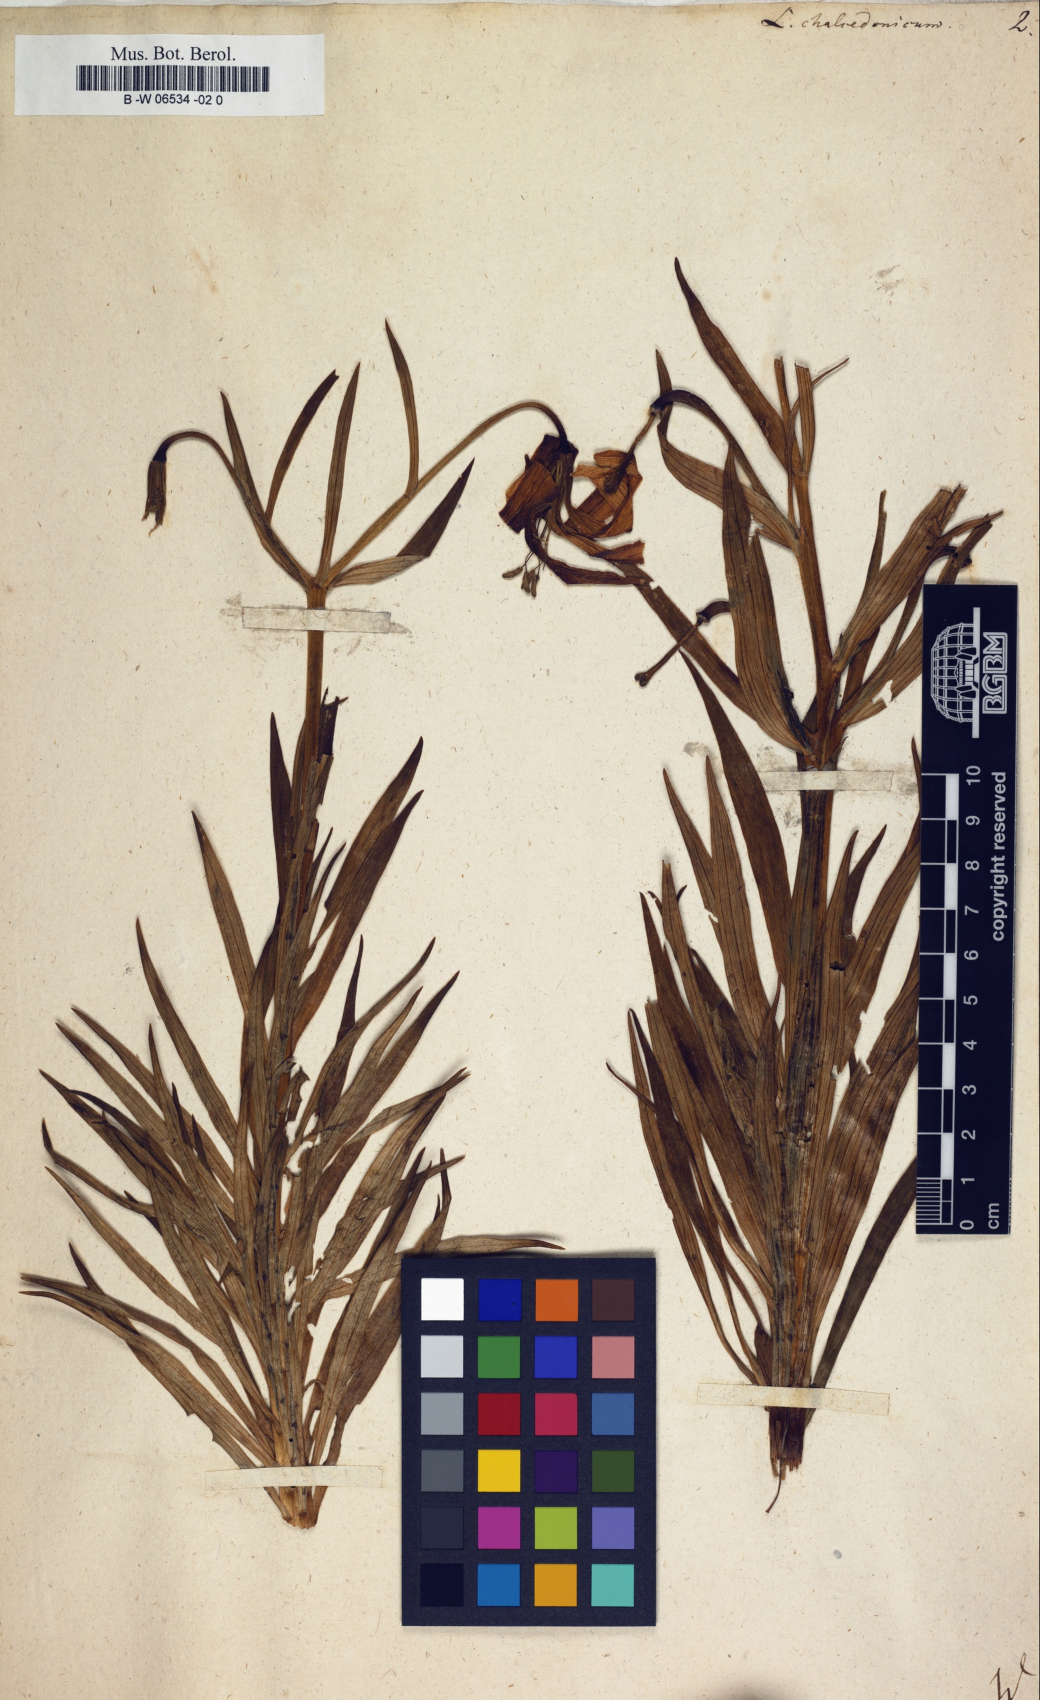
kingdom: Plantae
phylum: Tracheophyta
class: Liliopsida
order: Liliales
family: Liliaceae
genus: Lilium
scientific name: Lilium chalcedonicum
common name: Red martagon of constantinople
